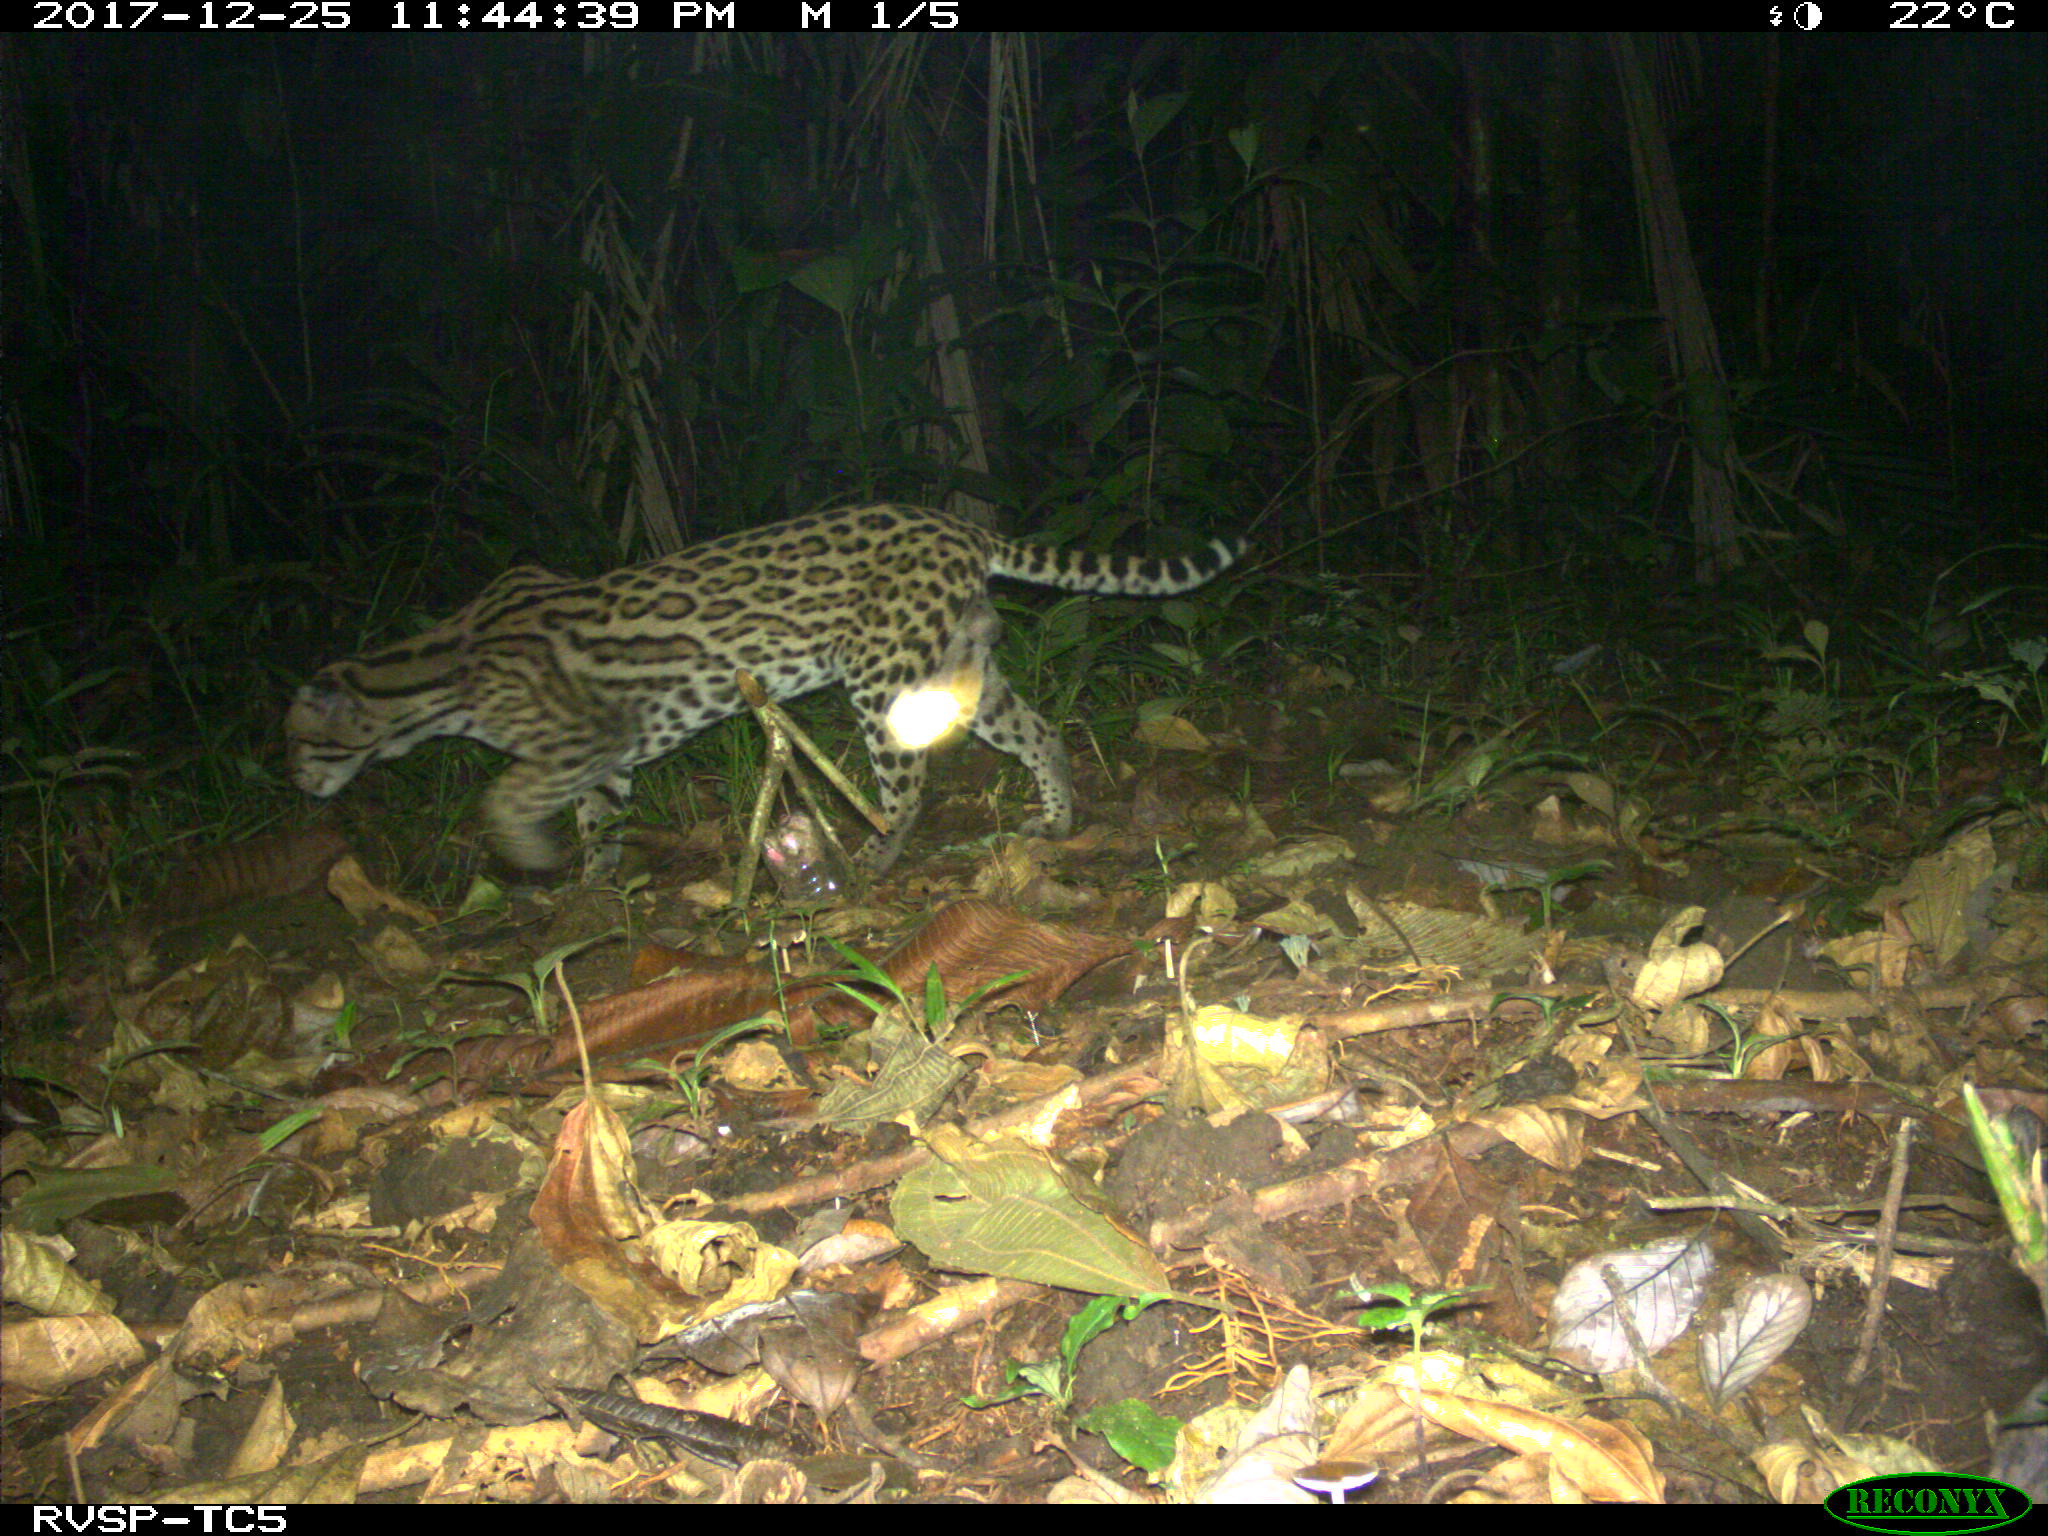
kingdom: Animalia
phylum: Chordata
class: Mammalia
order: Carnivora
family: Felidae
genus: Leopardus
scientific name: Leopardus pardalis
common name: Ocelot
